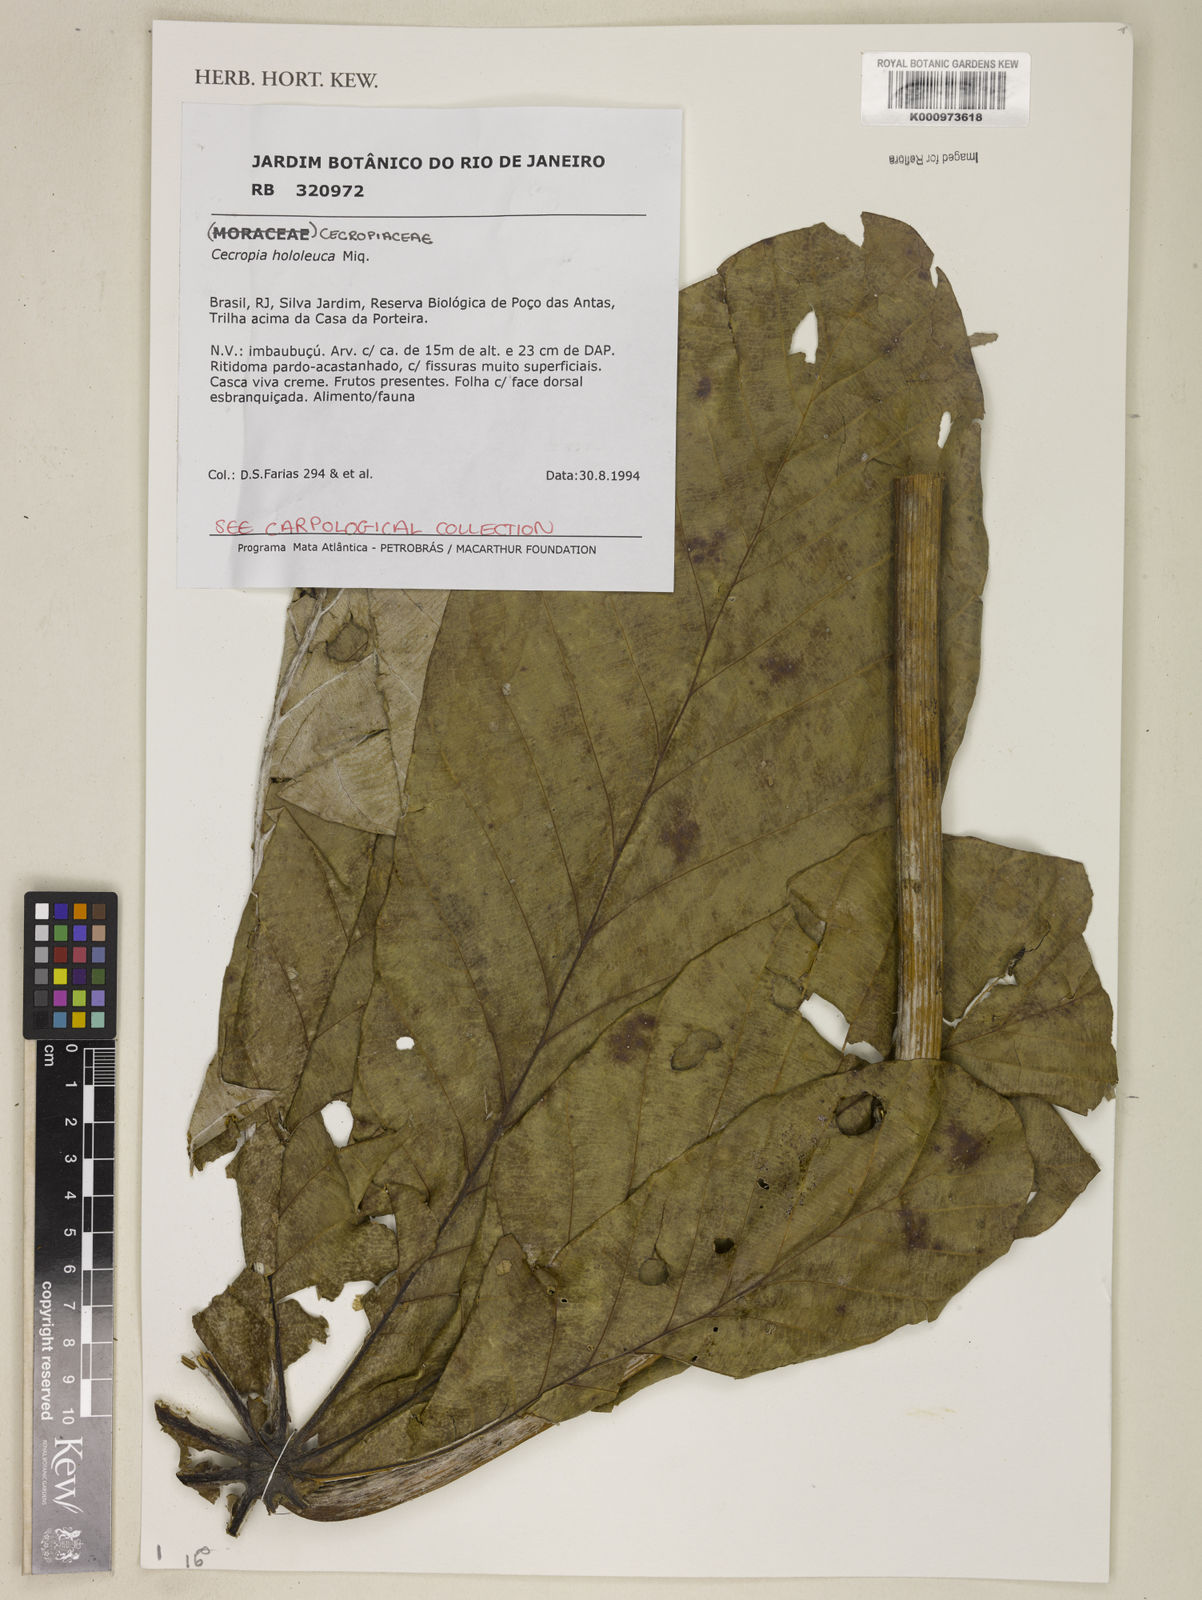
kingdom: Plantae
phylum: Tracheophyta
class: Magnoliopsida
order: Rosales
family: Urticaceae
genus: Cecropia
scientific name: Cecropia hololeuca
